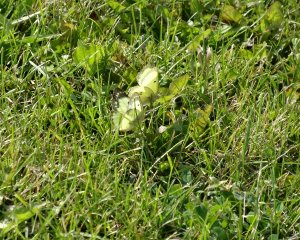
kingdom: Animalia
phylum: Arthropoda
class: Insecta
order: Lepidoptera
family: Pieridae
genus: Colias
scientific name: Colias philodice
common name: Clouded Sulphur
